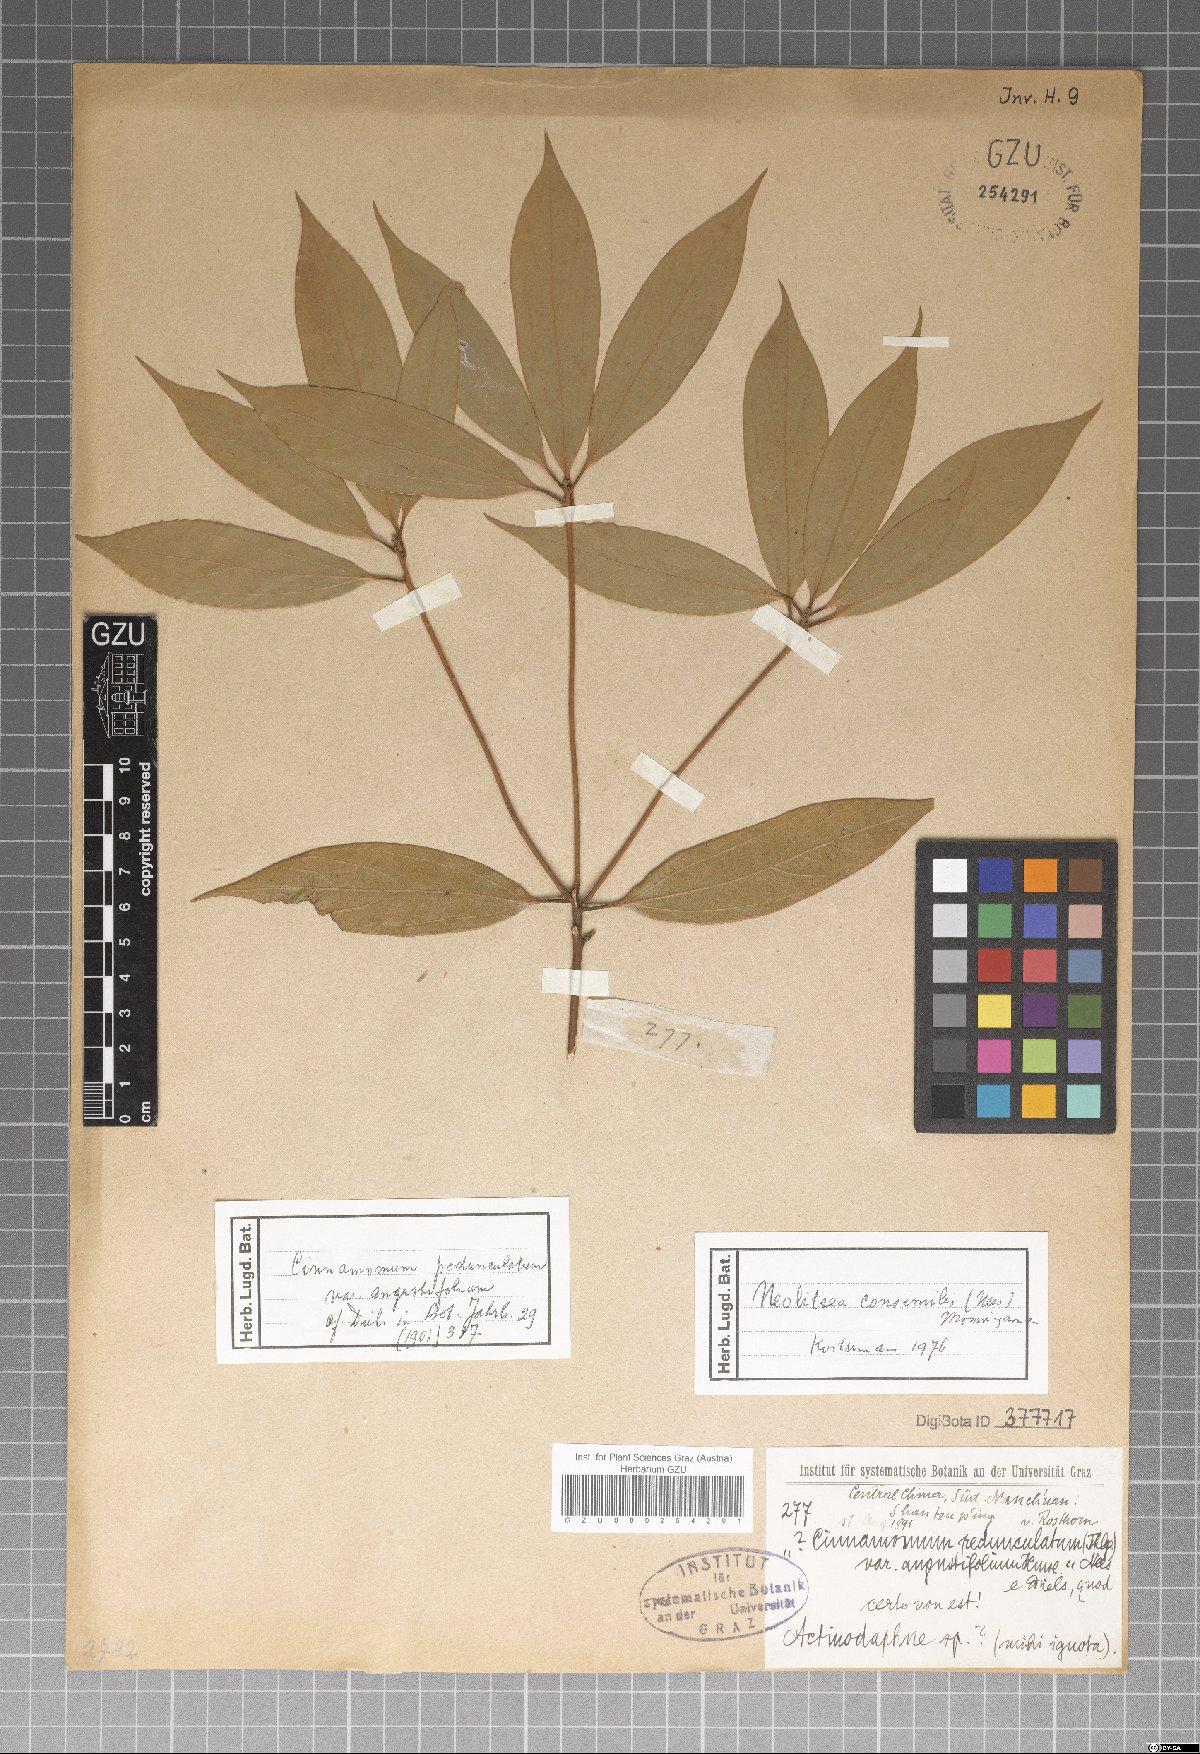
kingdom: Plantae
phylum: Tracheophyta
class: Magnoliopsida
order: Laurales
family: Lauraceae
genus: Cinnamomum
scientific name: Cinnamomum heyneanum
